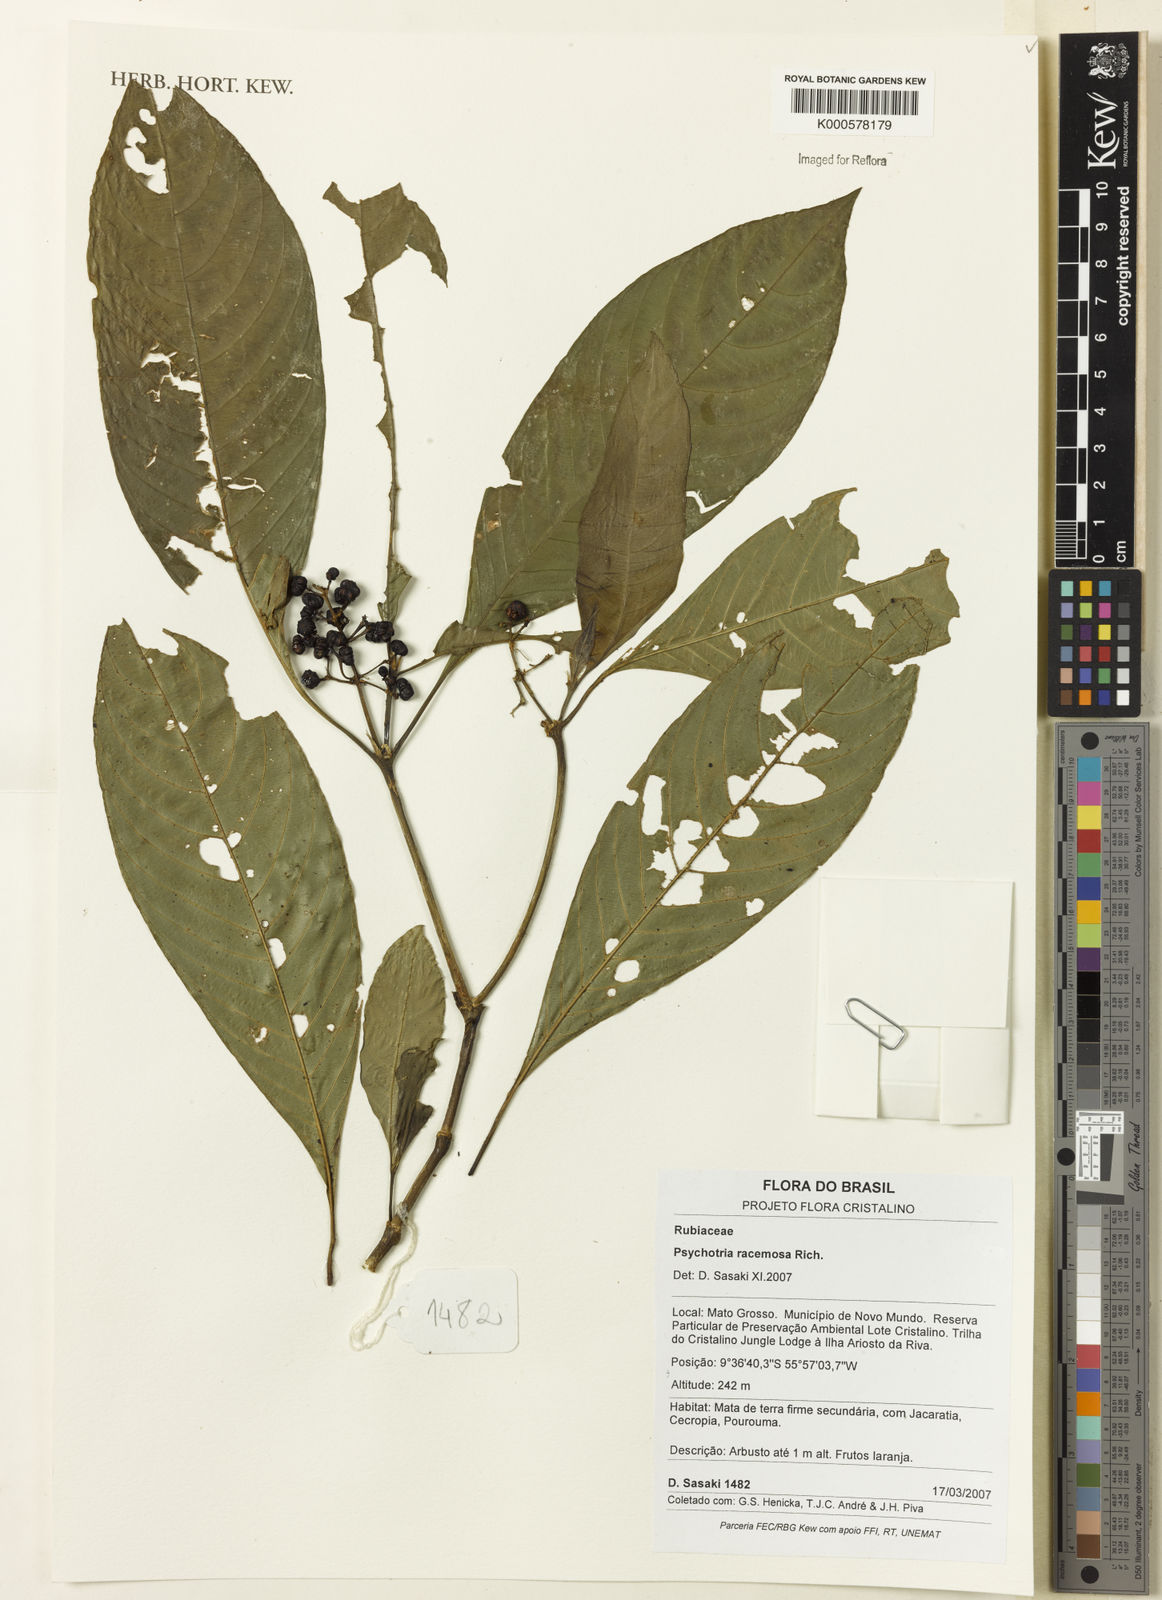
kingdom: Plantae
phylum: Tracheophyta
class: Magnoliopsida
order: Gentianales
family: Rubiaceae
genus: Palicourea
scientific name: Palicourea racemosa
